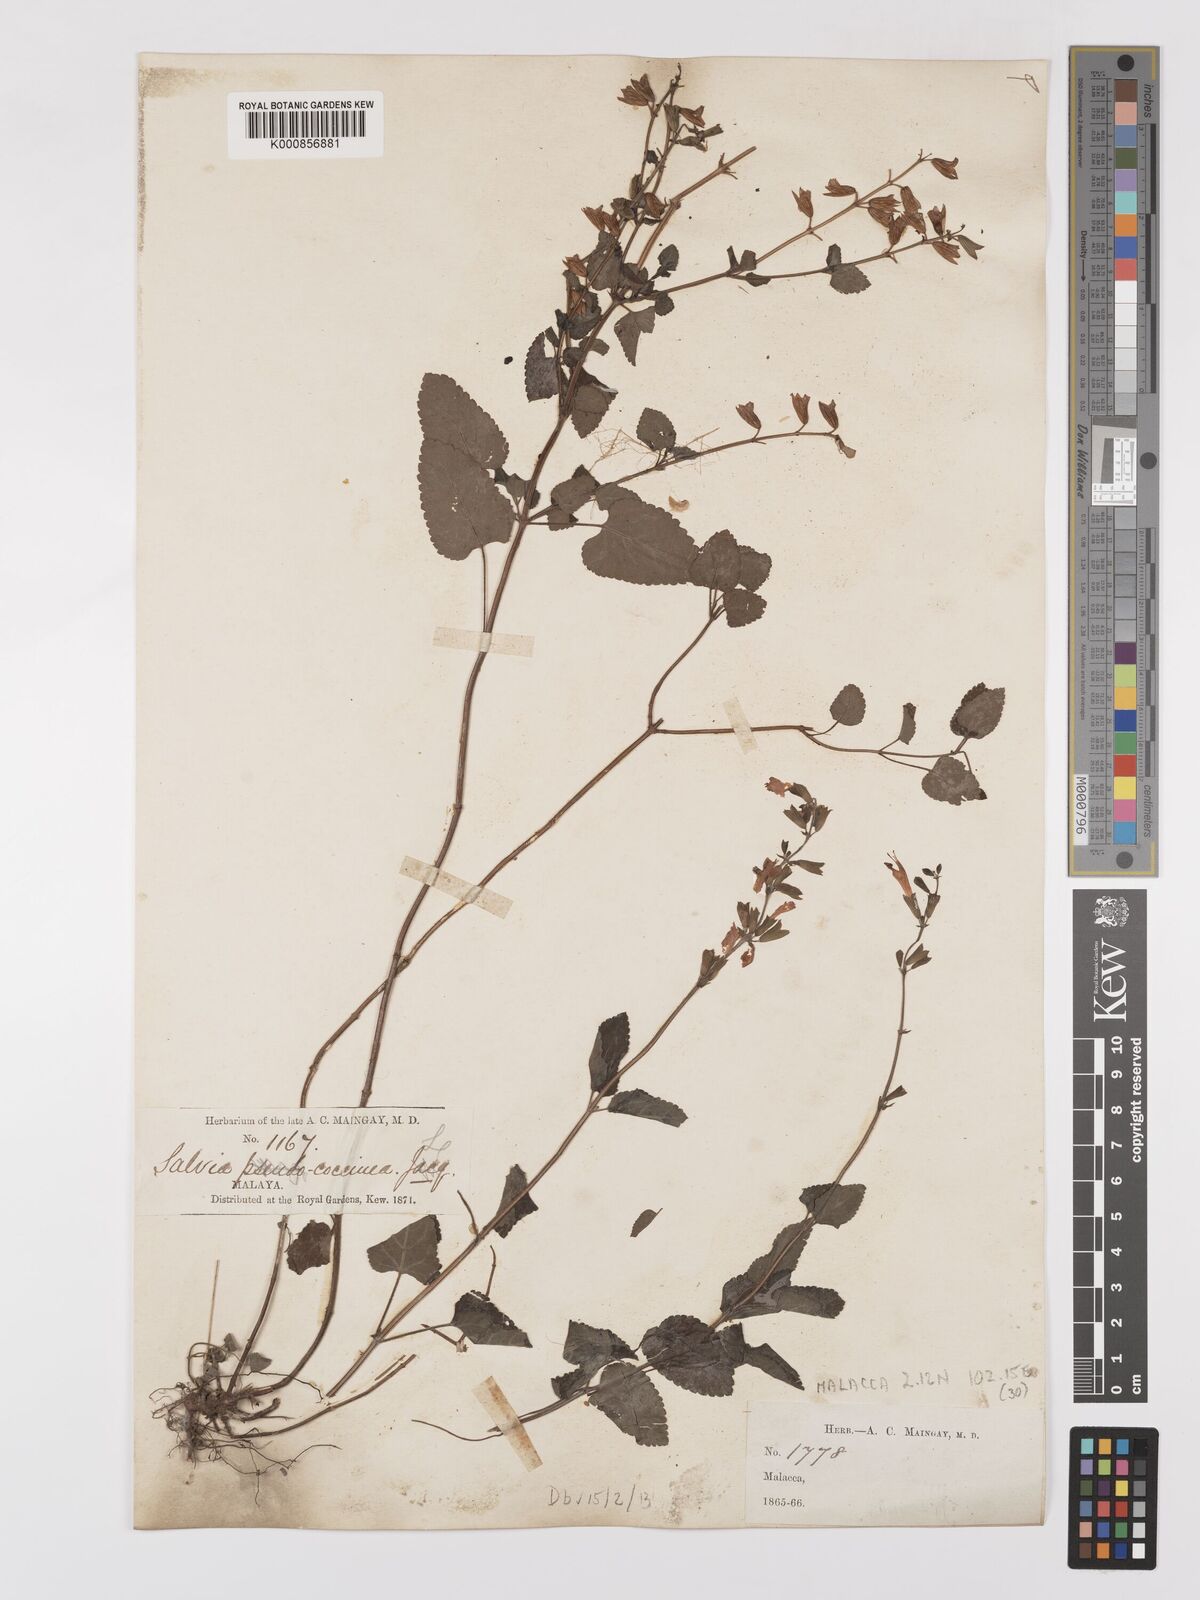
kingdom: Plantae
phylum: Tracheophyta
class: Magnoliopsida
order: Lamiales
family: Lamiaceae
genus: Salvia
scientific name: Salvia coccinea
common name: Blood sage
